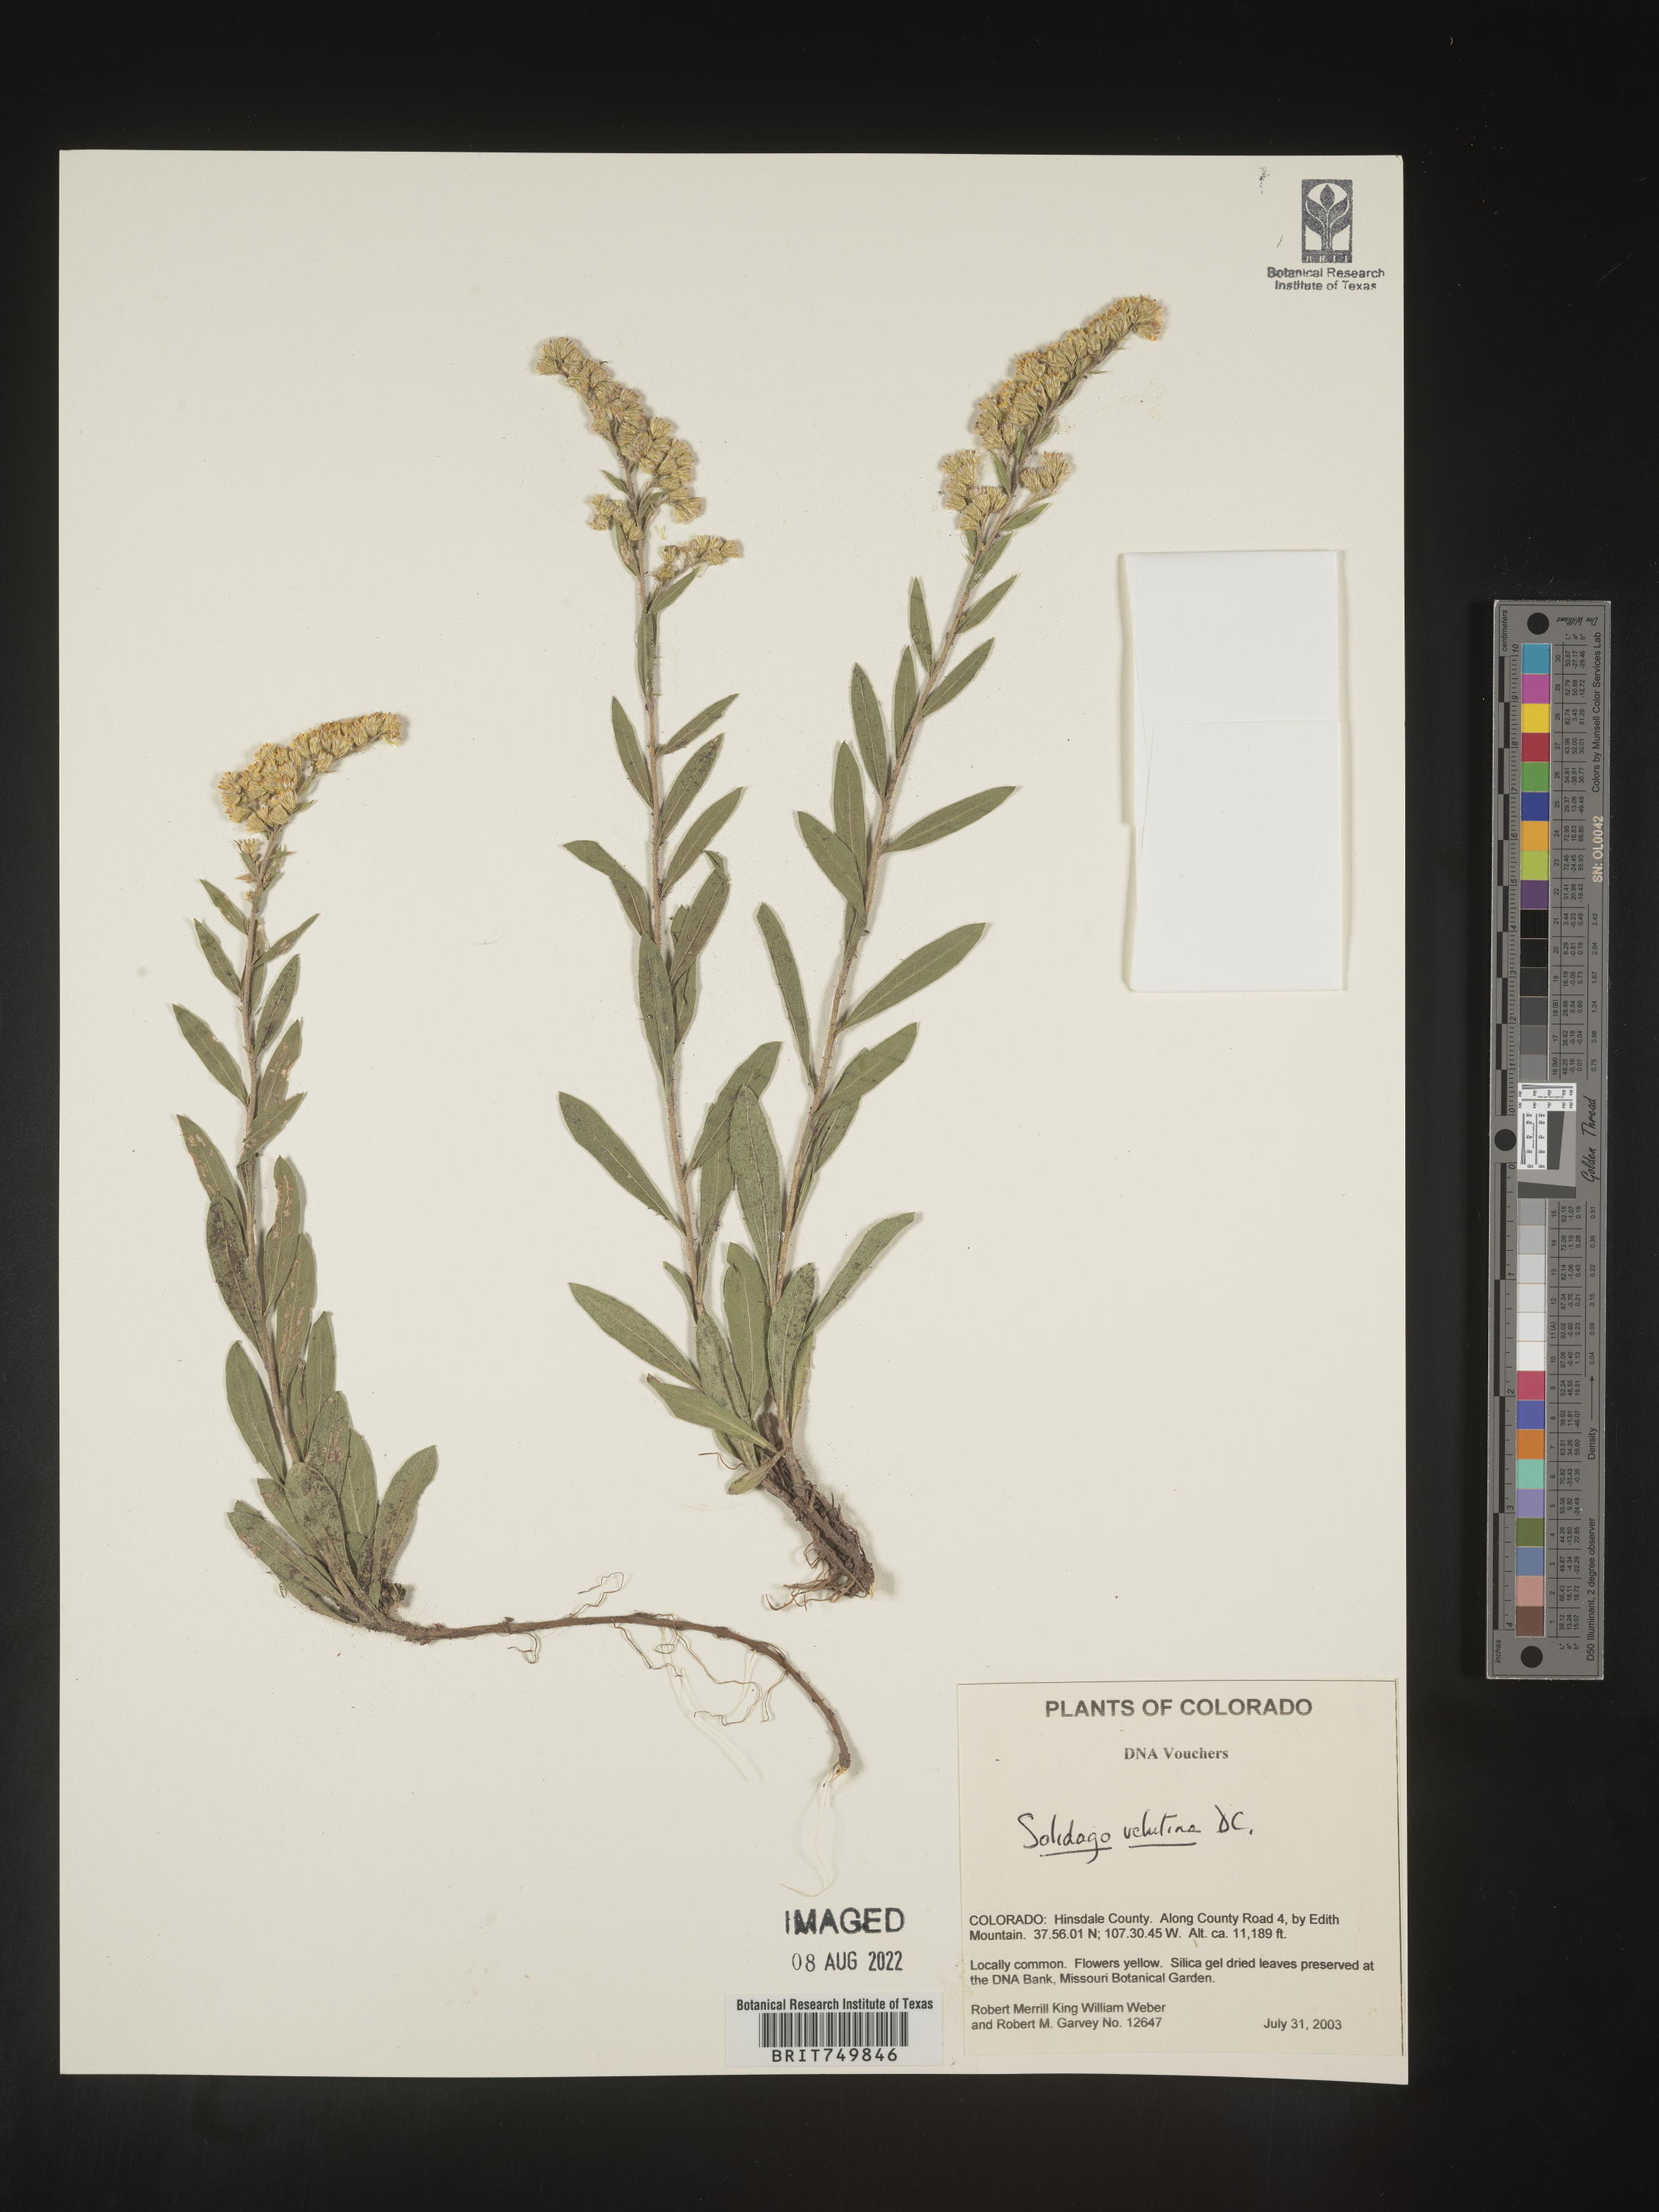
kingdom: Plantae
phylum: Tracheophyta
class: Magnoliopsida
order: Asterales
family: Asteraceae
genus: Solidago
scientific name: Solidago velutina
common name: Three-nerve goldenrod
